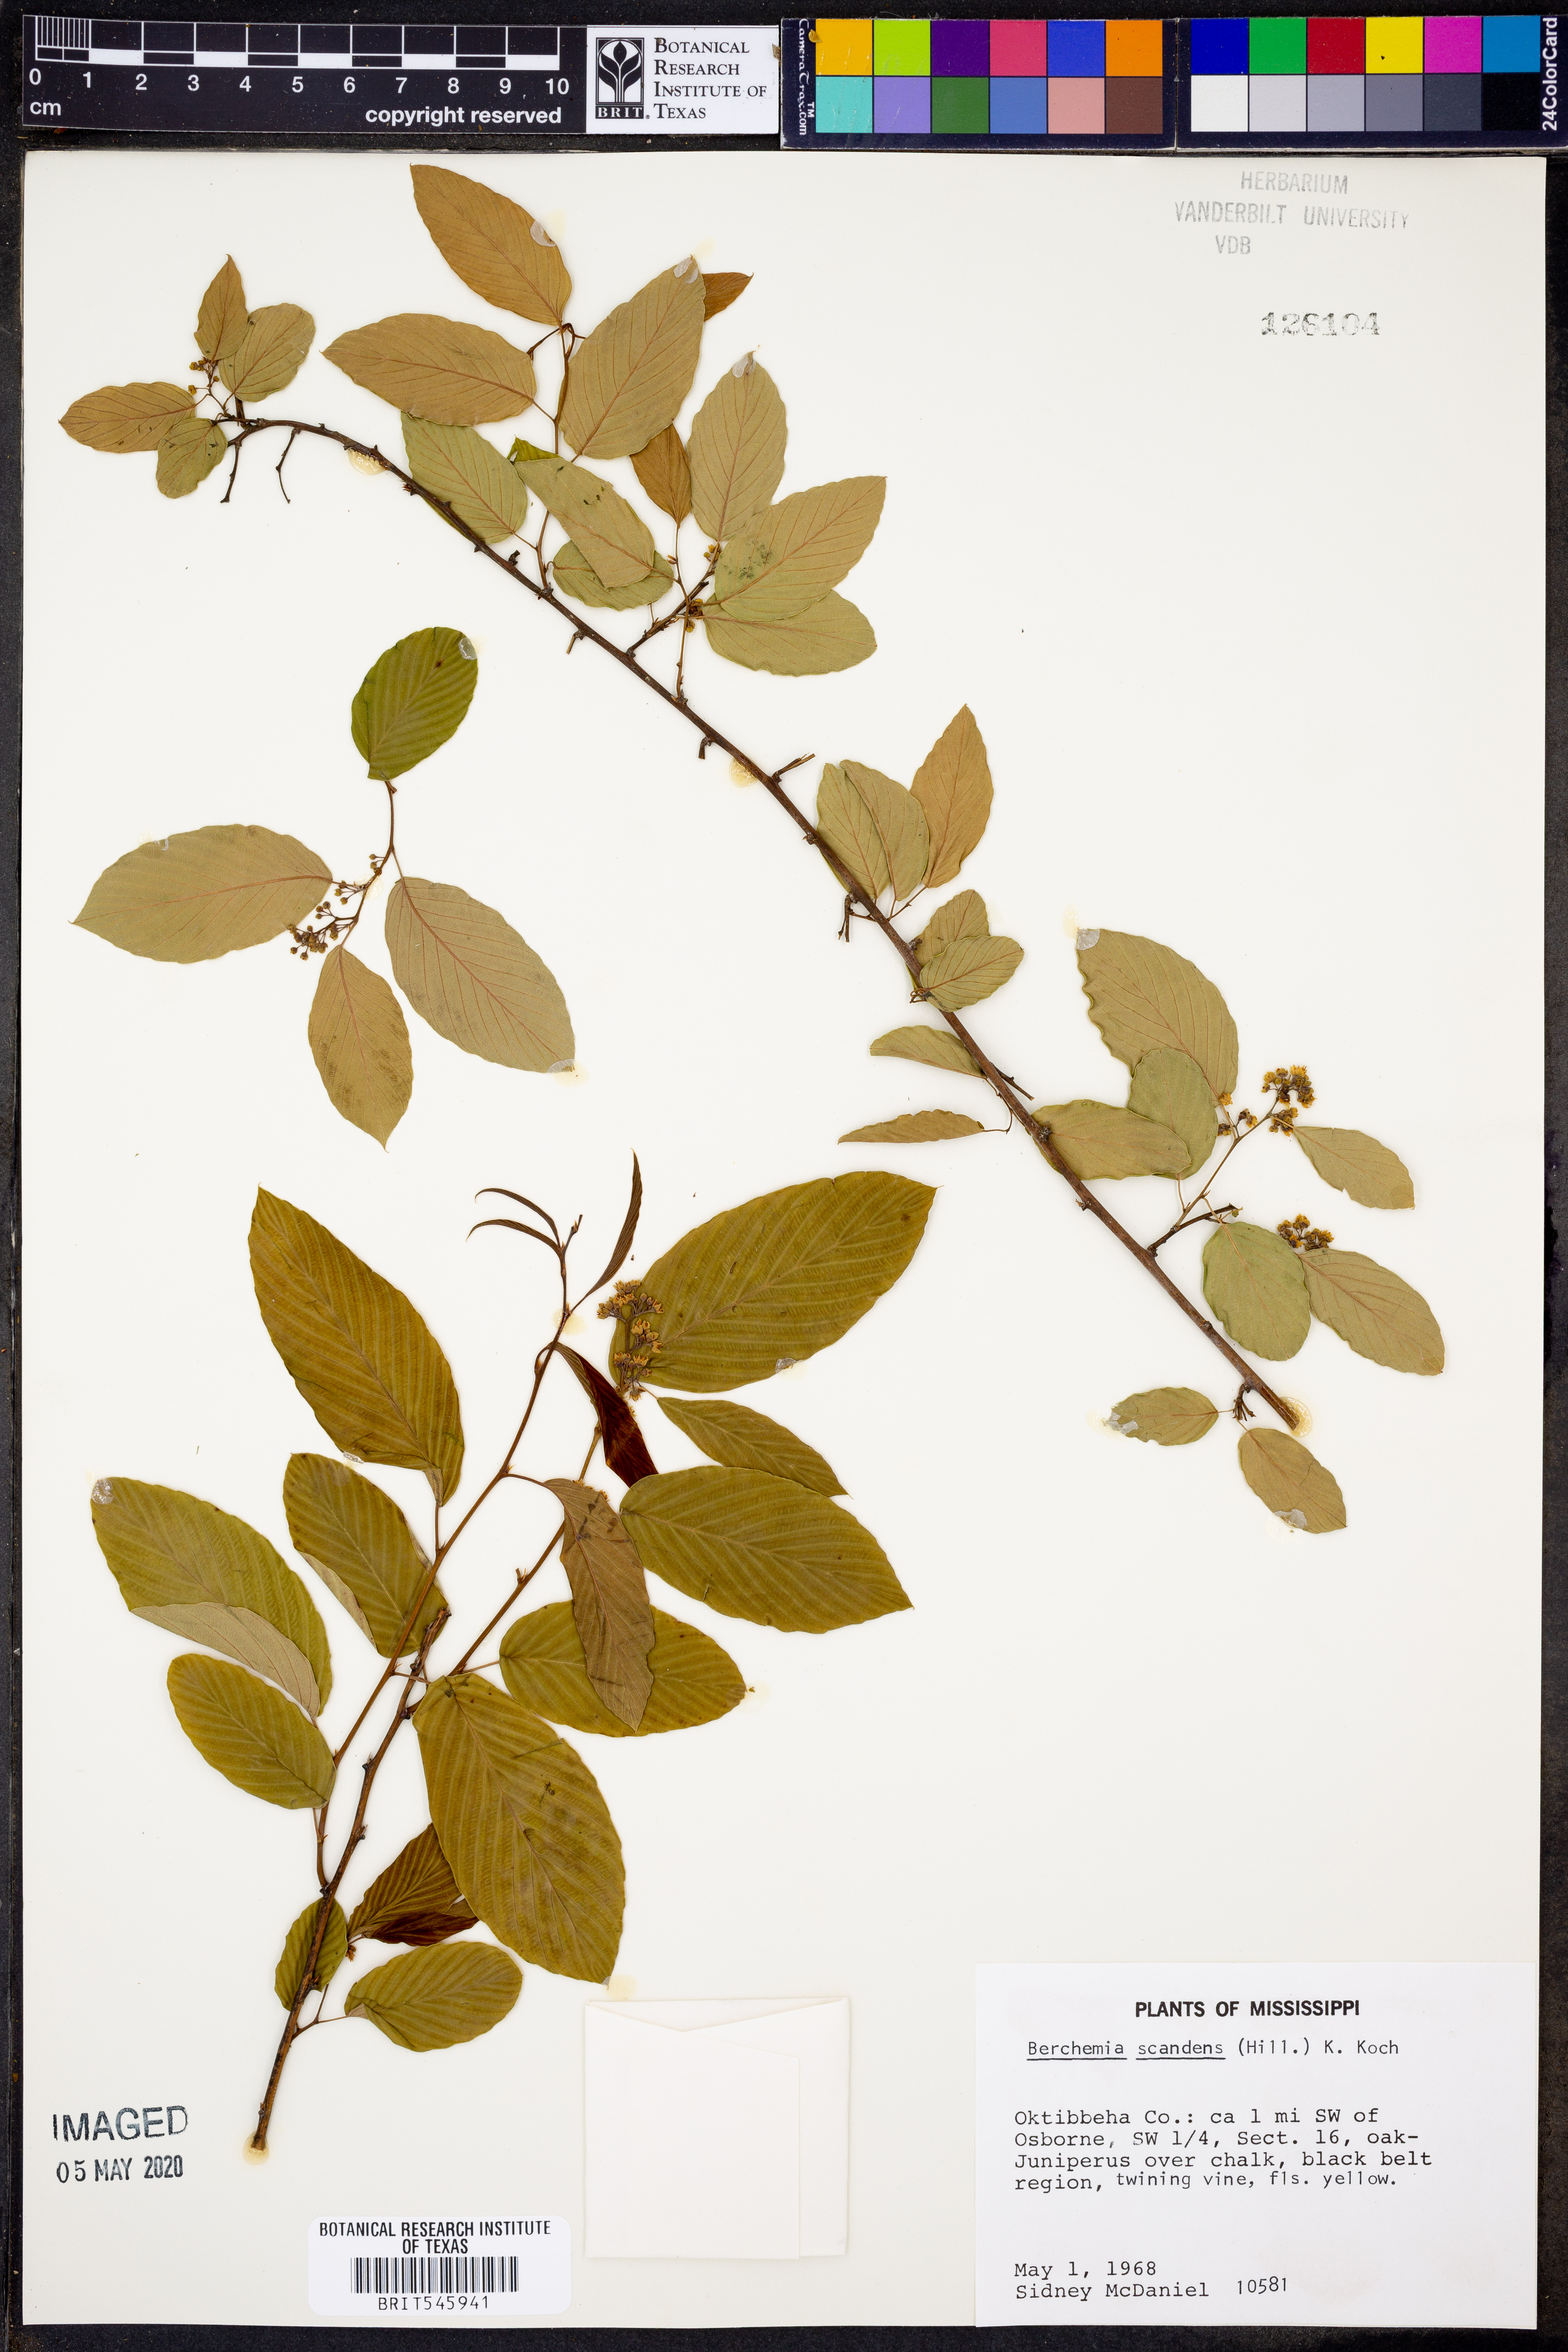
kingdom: Plantae
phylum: Tracheophyta
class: Magnoliopsida
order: Rosales
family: Rhamnaceae
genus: Berchemia
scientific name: Berchemia scandens
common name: Supplejack
